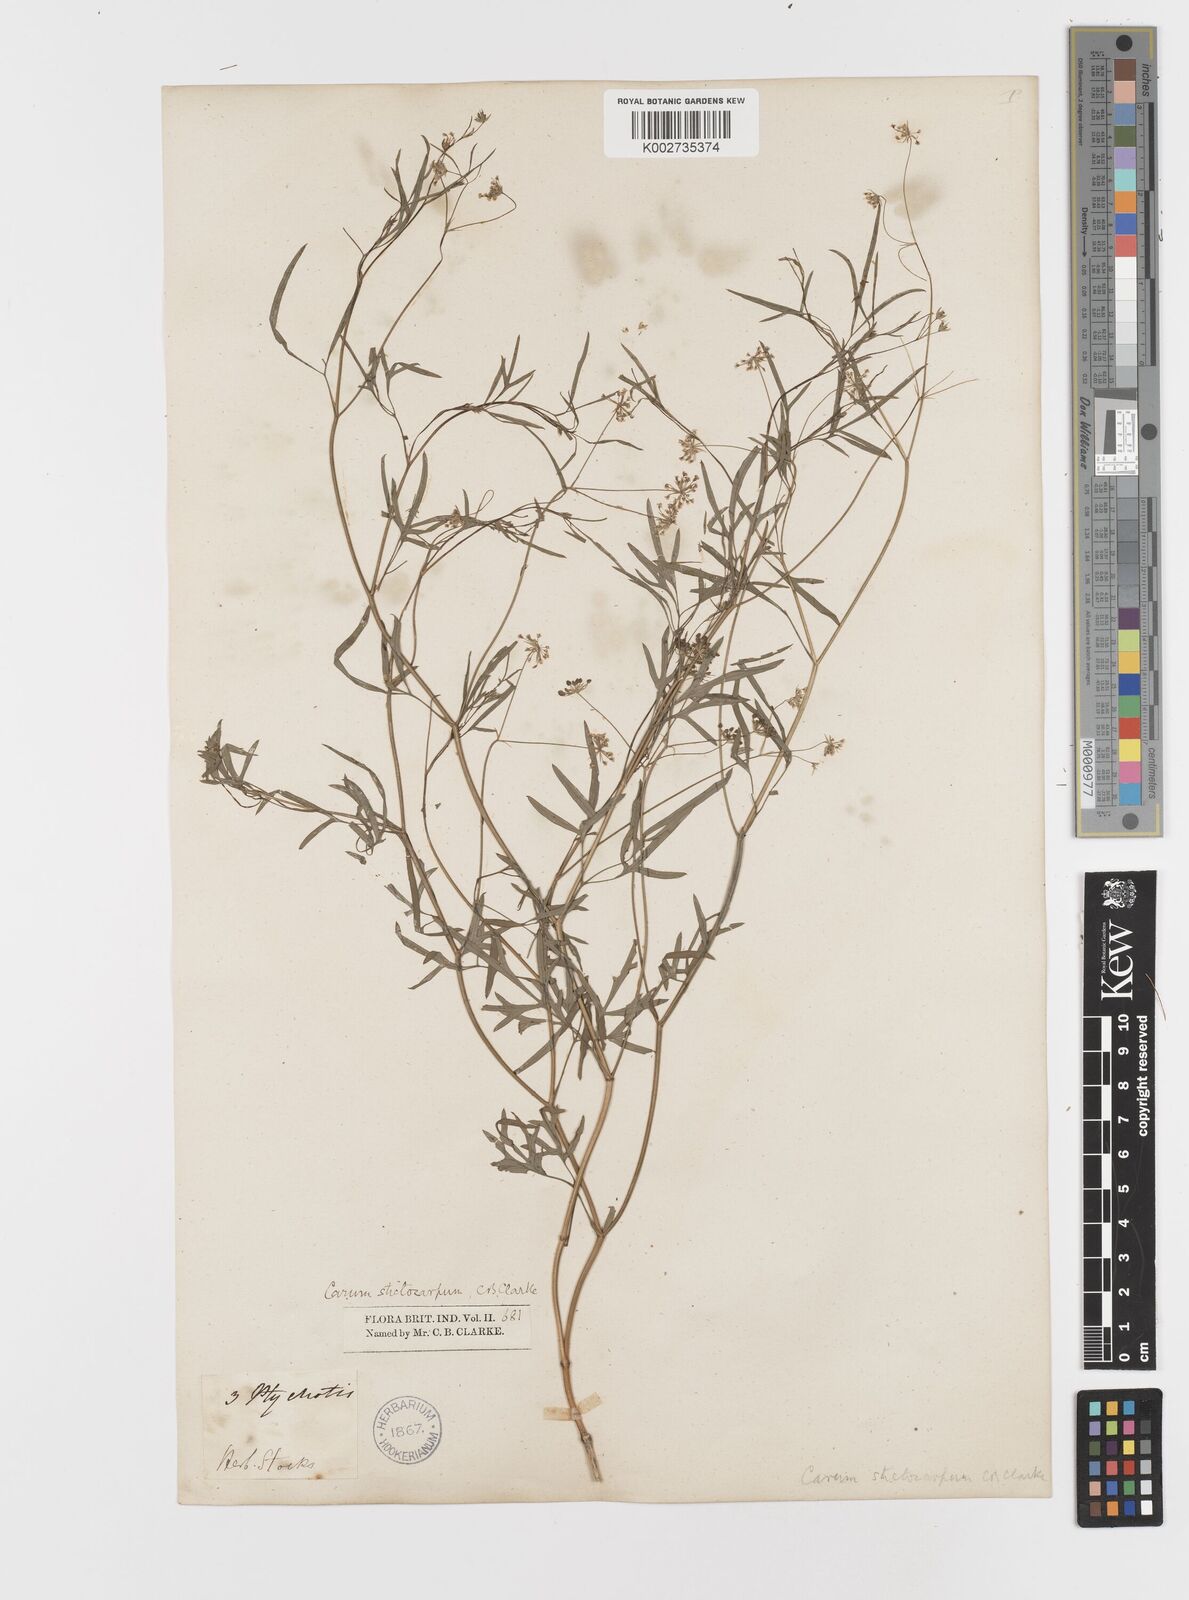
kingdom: Plantae
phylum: Tracheophyta
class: Magnoliopsida
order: Apiales
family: Apiaceae
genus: Psammogeton
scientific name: Psammogeton involucratum
